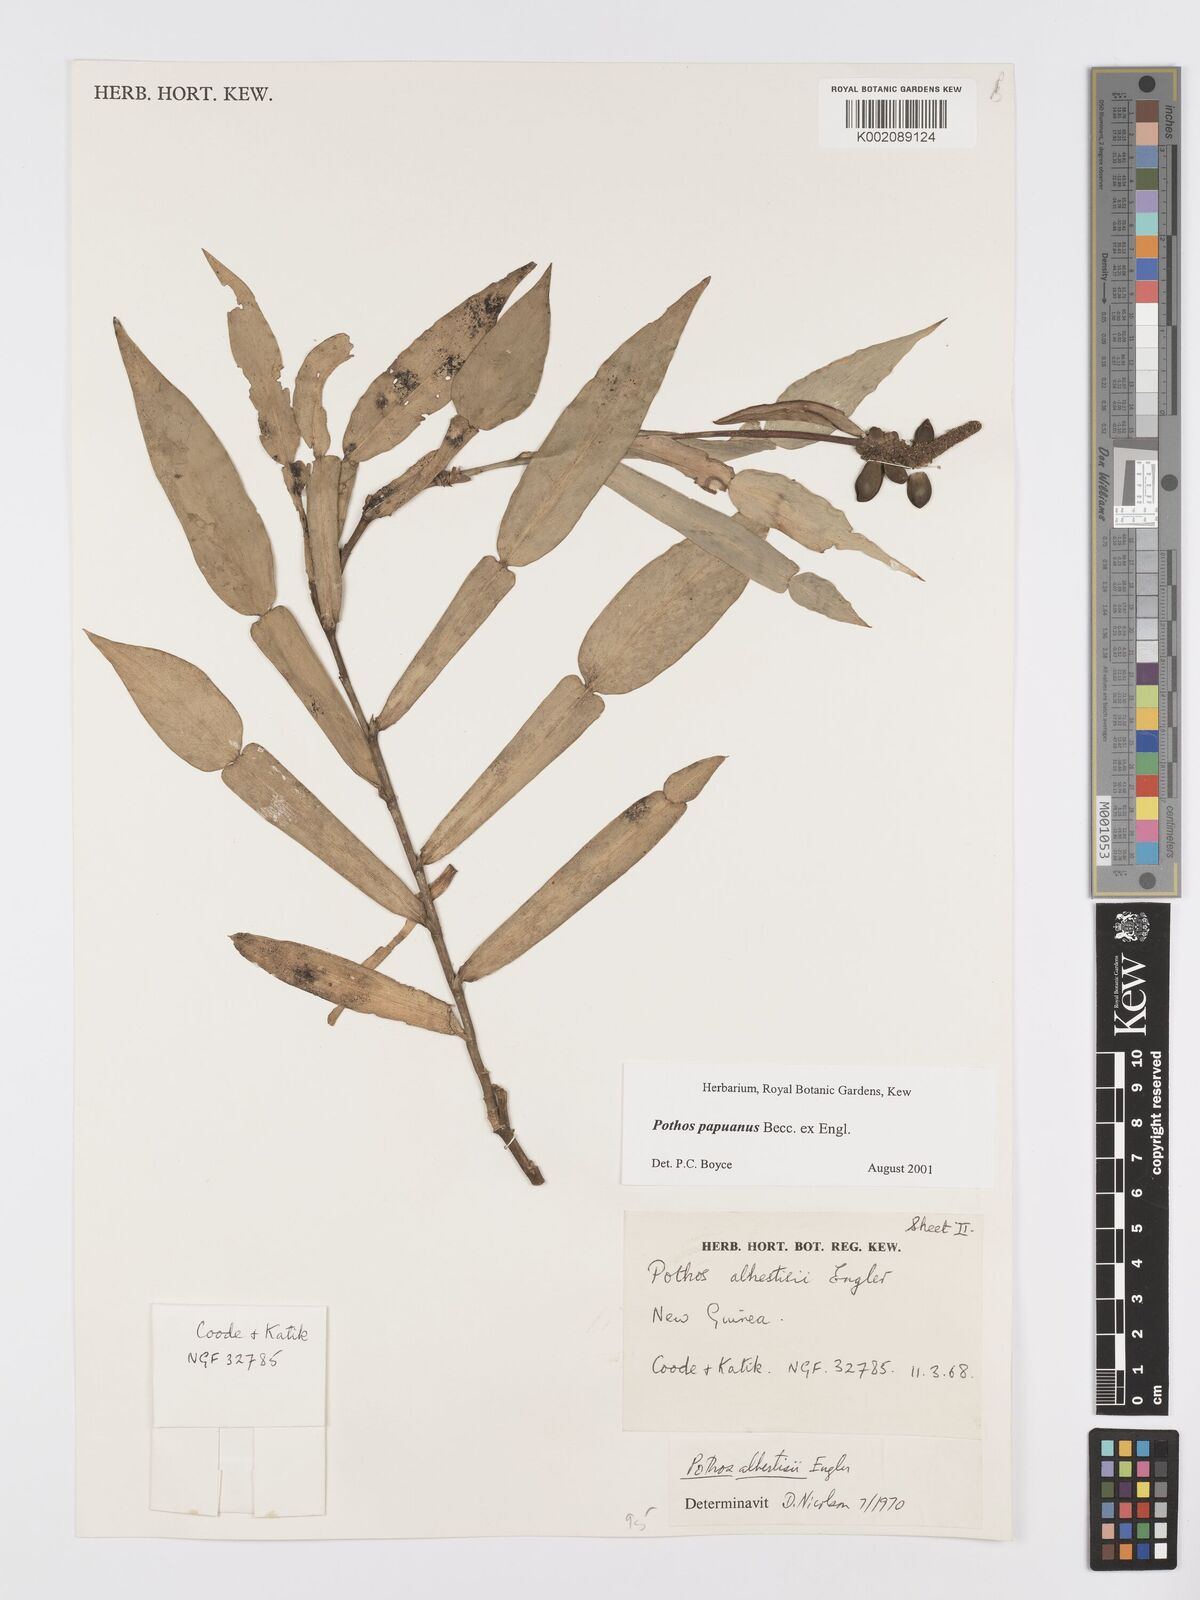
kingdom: Plantae
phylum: Tracheophyta
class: Liliopsida
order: Alismatales
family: Araceae
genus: Pothos
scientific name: Pothos papuanus
